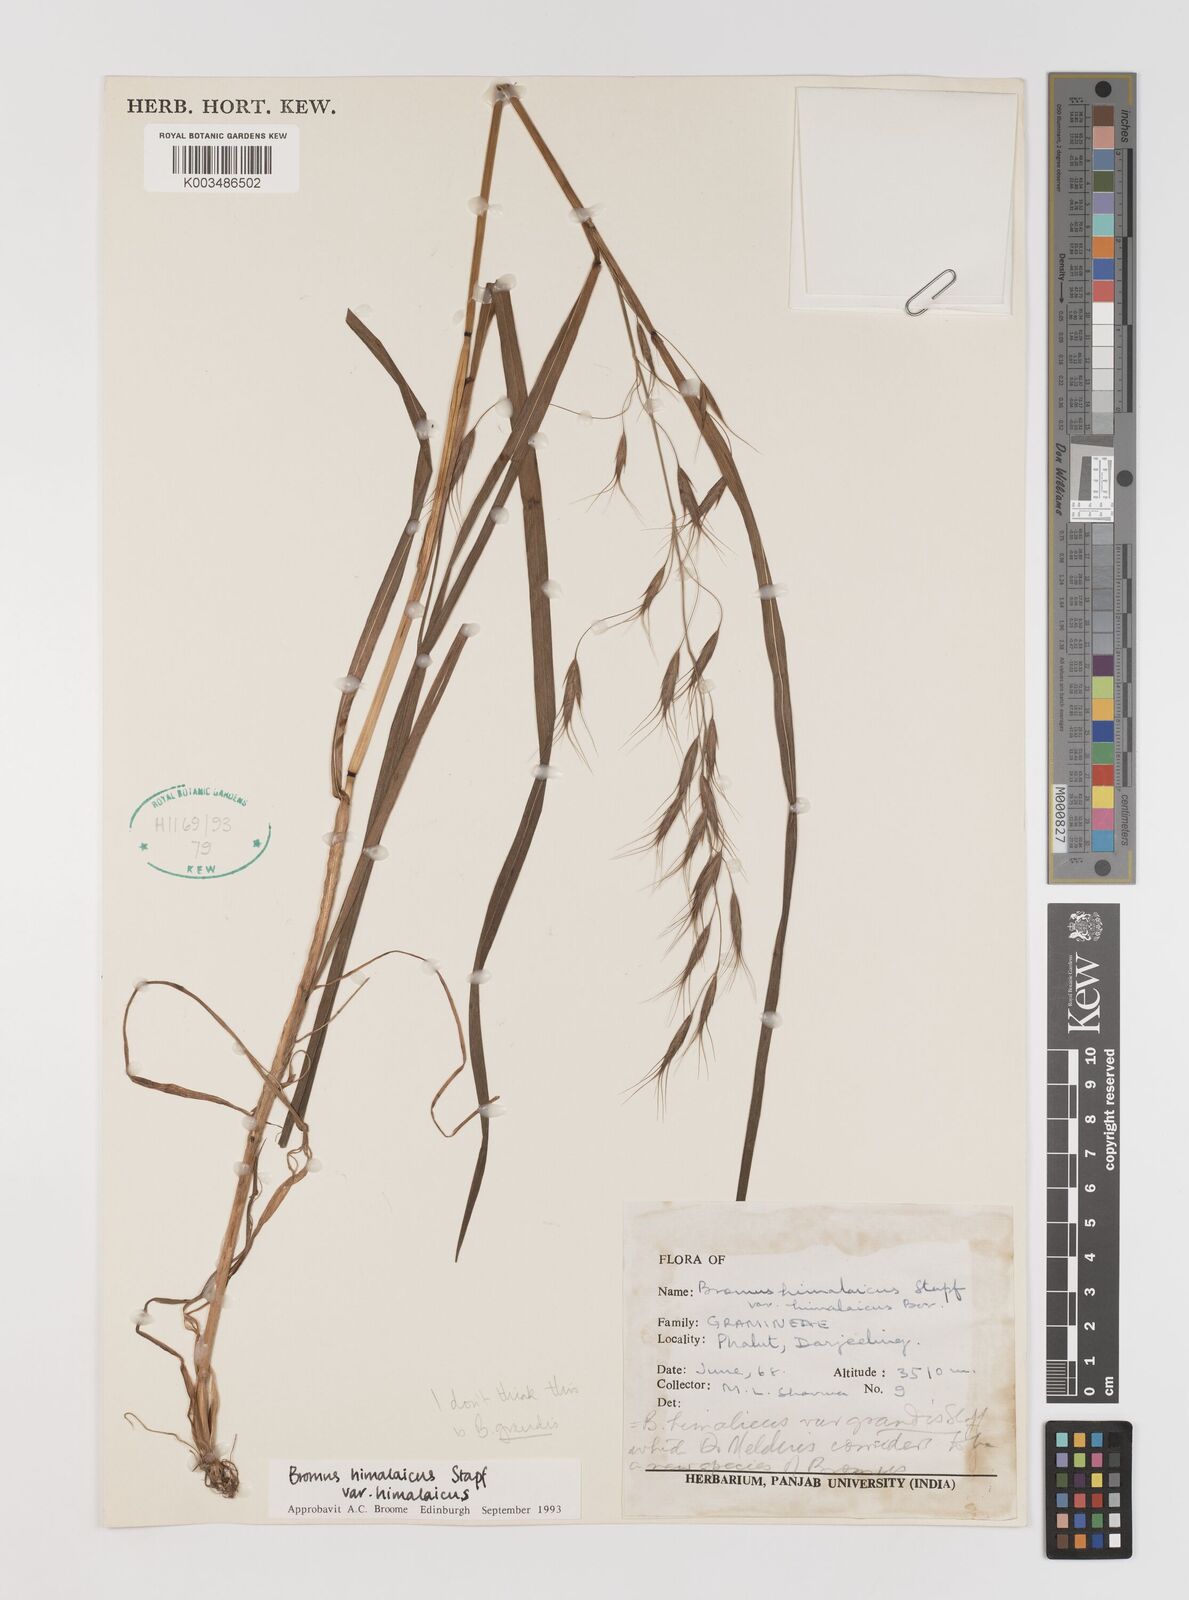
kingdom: Plantae
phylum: Tracheophyta
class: Liliopsida
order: Poales
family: Poaceae
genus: Bromus
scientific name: Bromus himalaicus
